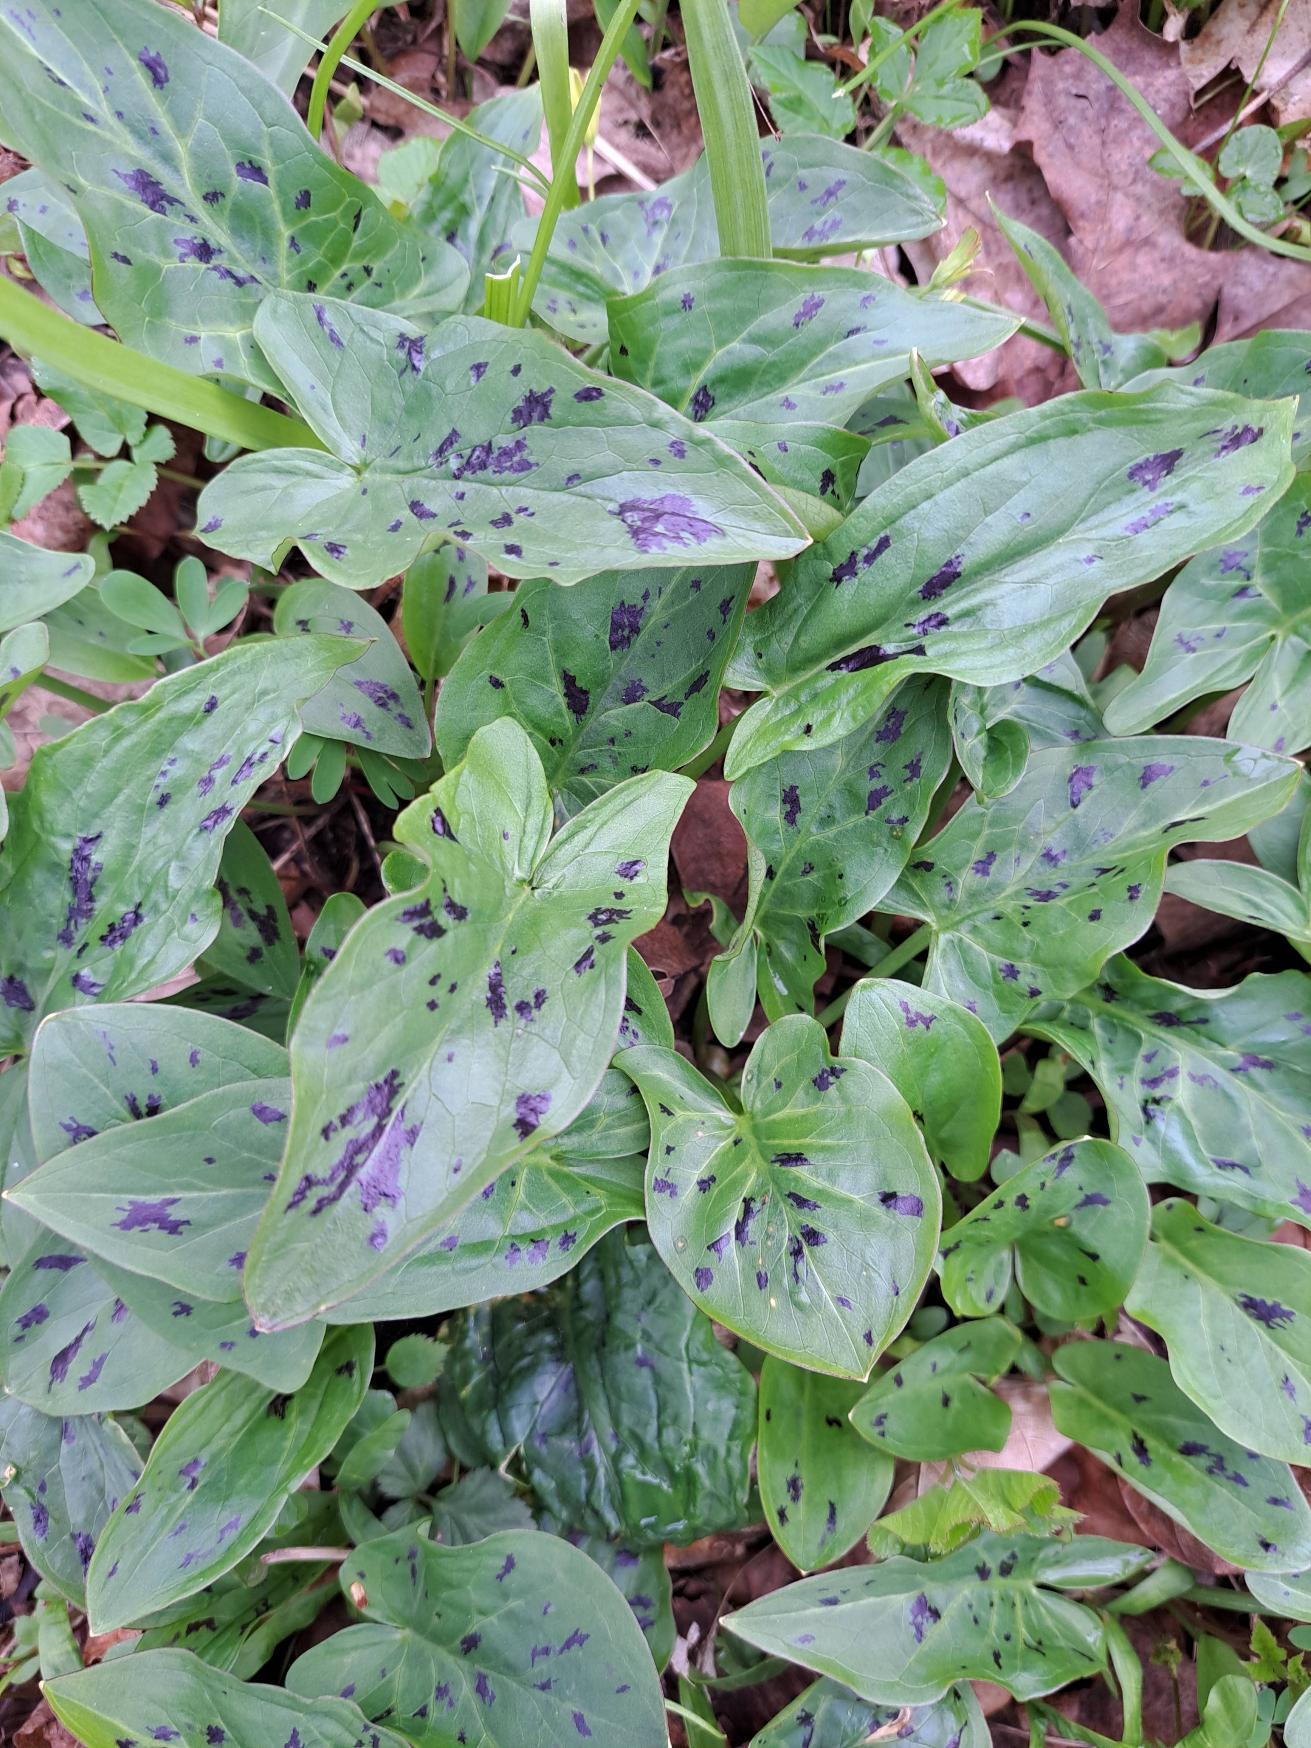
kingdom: Plantae
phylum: Tracheophyta
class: Liliopsida
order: Alismatales
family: Araceae
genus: Arum
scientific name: Arum maculatum
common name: Plettet arum
